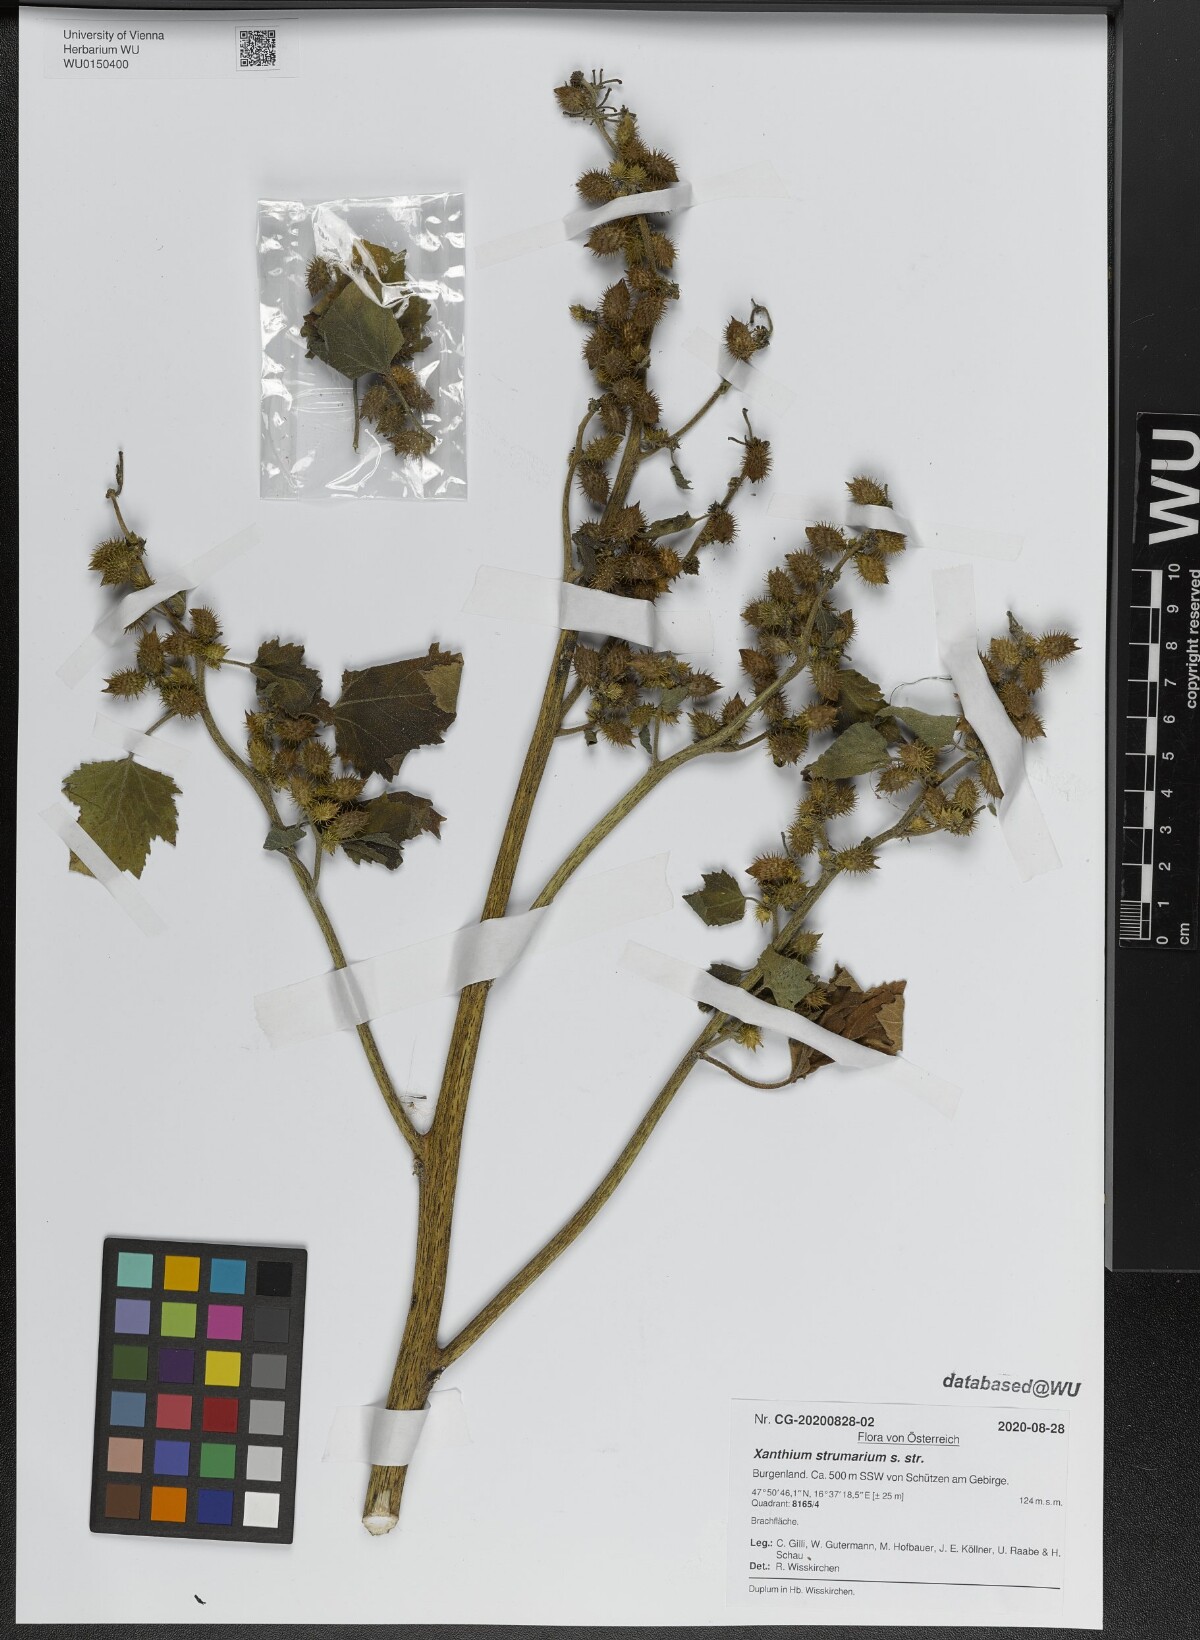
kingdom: Plantae
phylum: Tracheophyta
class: Magnoliopsida
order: Asterales
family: Asteraceae
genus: Xanthium
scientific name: Xanthium strumarium
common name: Rough cocklebur
